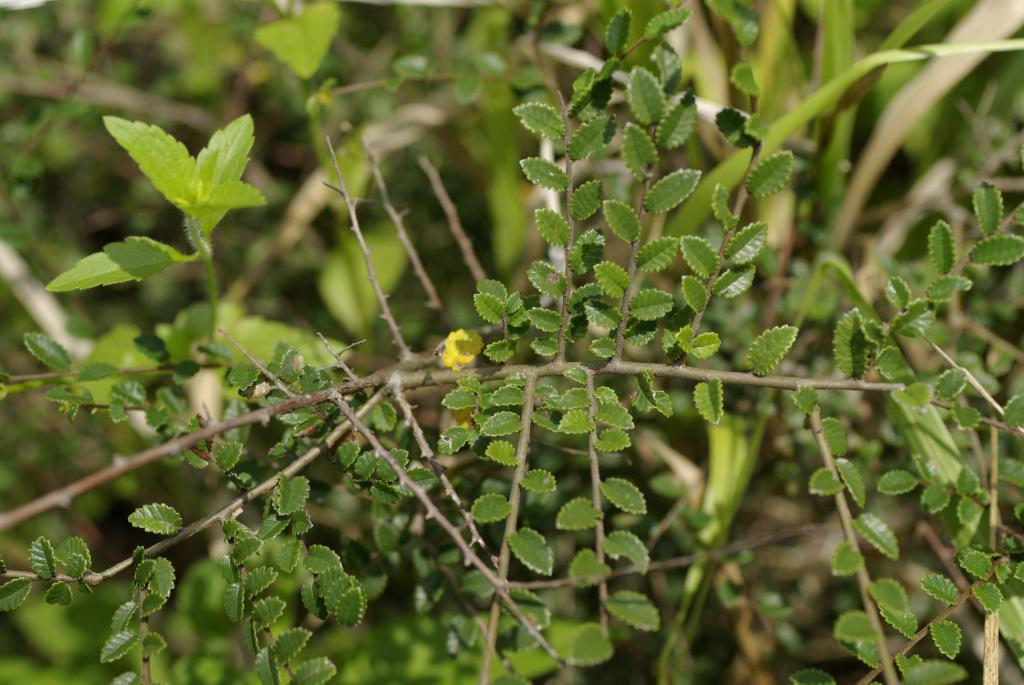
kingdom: Plantae
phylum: Tracheophyta
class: Magnoliopsida
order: Rosales
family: Ulmaceae
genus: Ulmus
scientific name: Ulmus parvifolia
